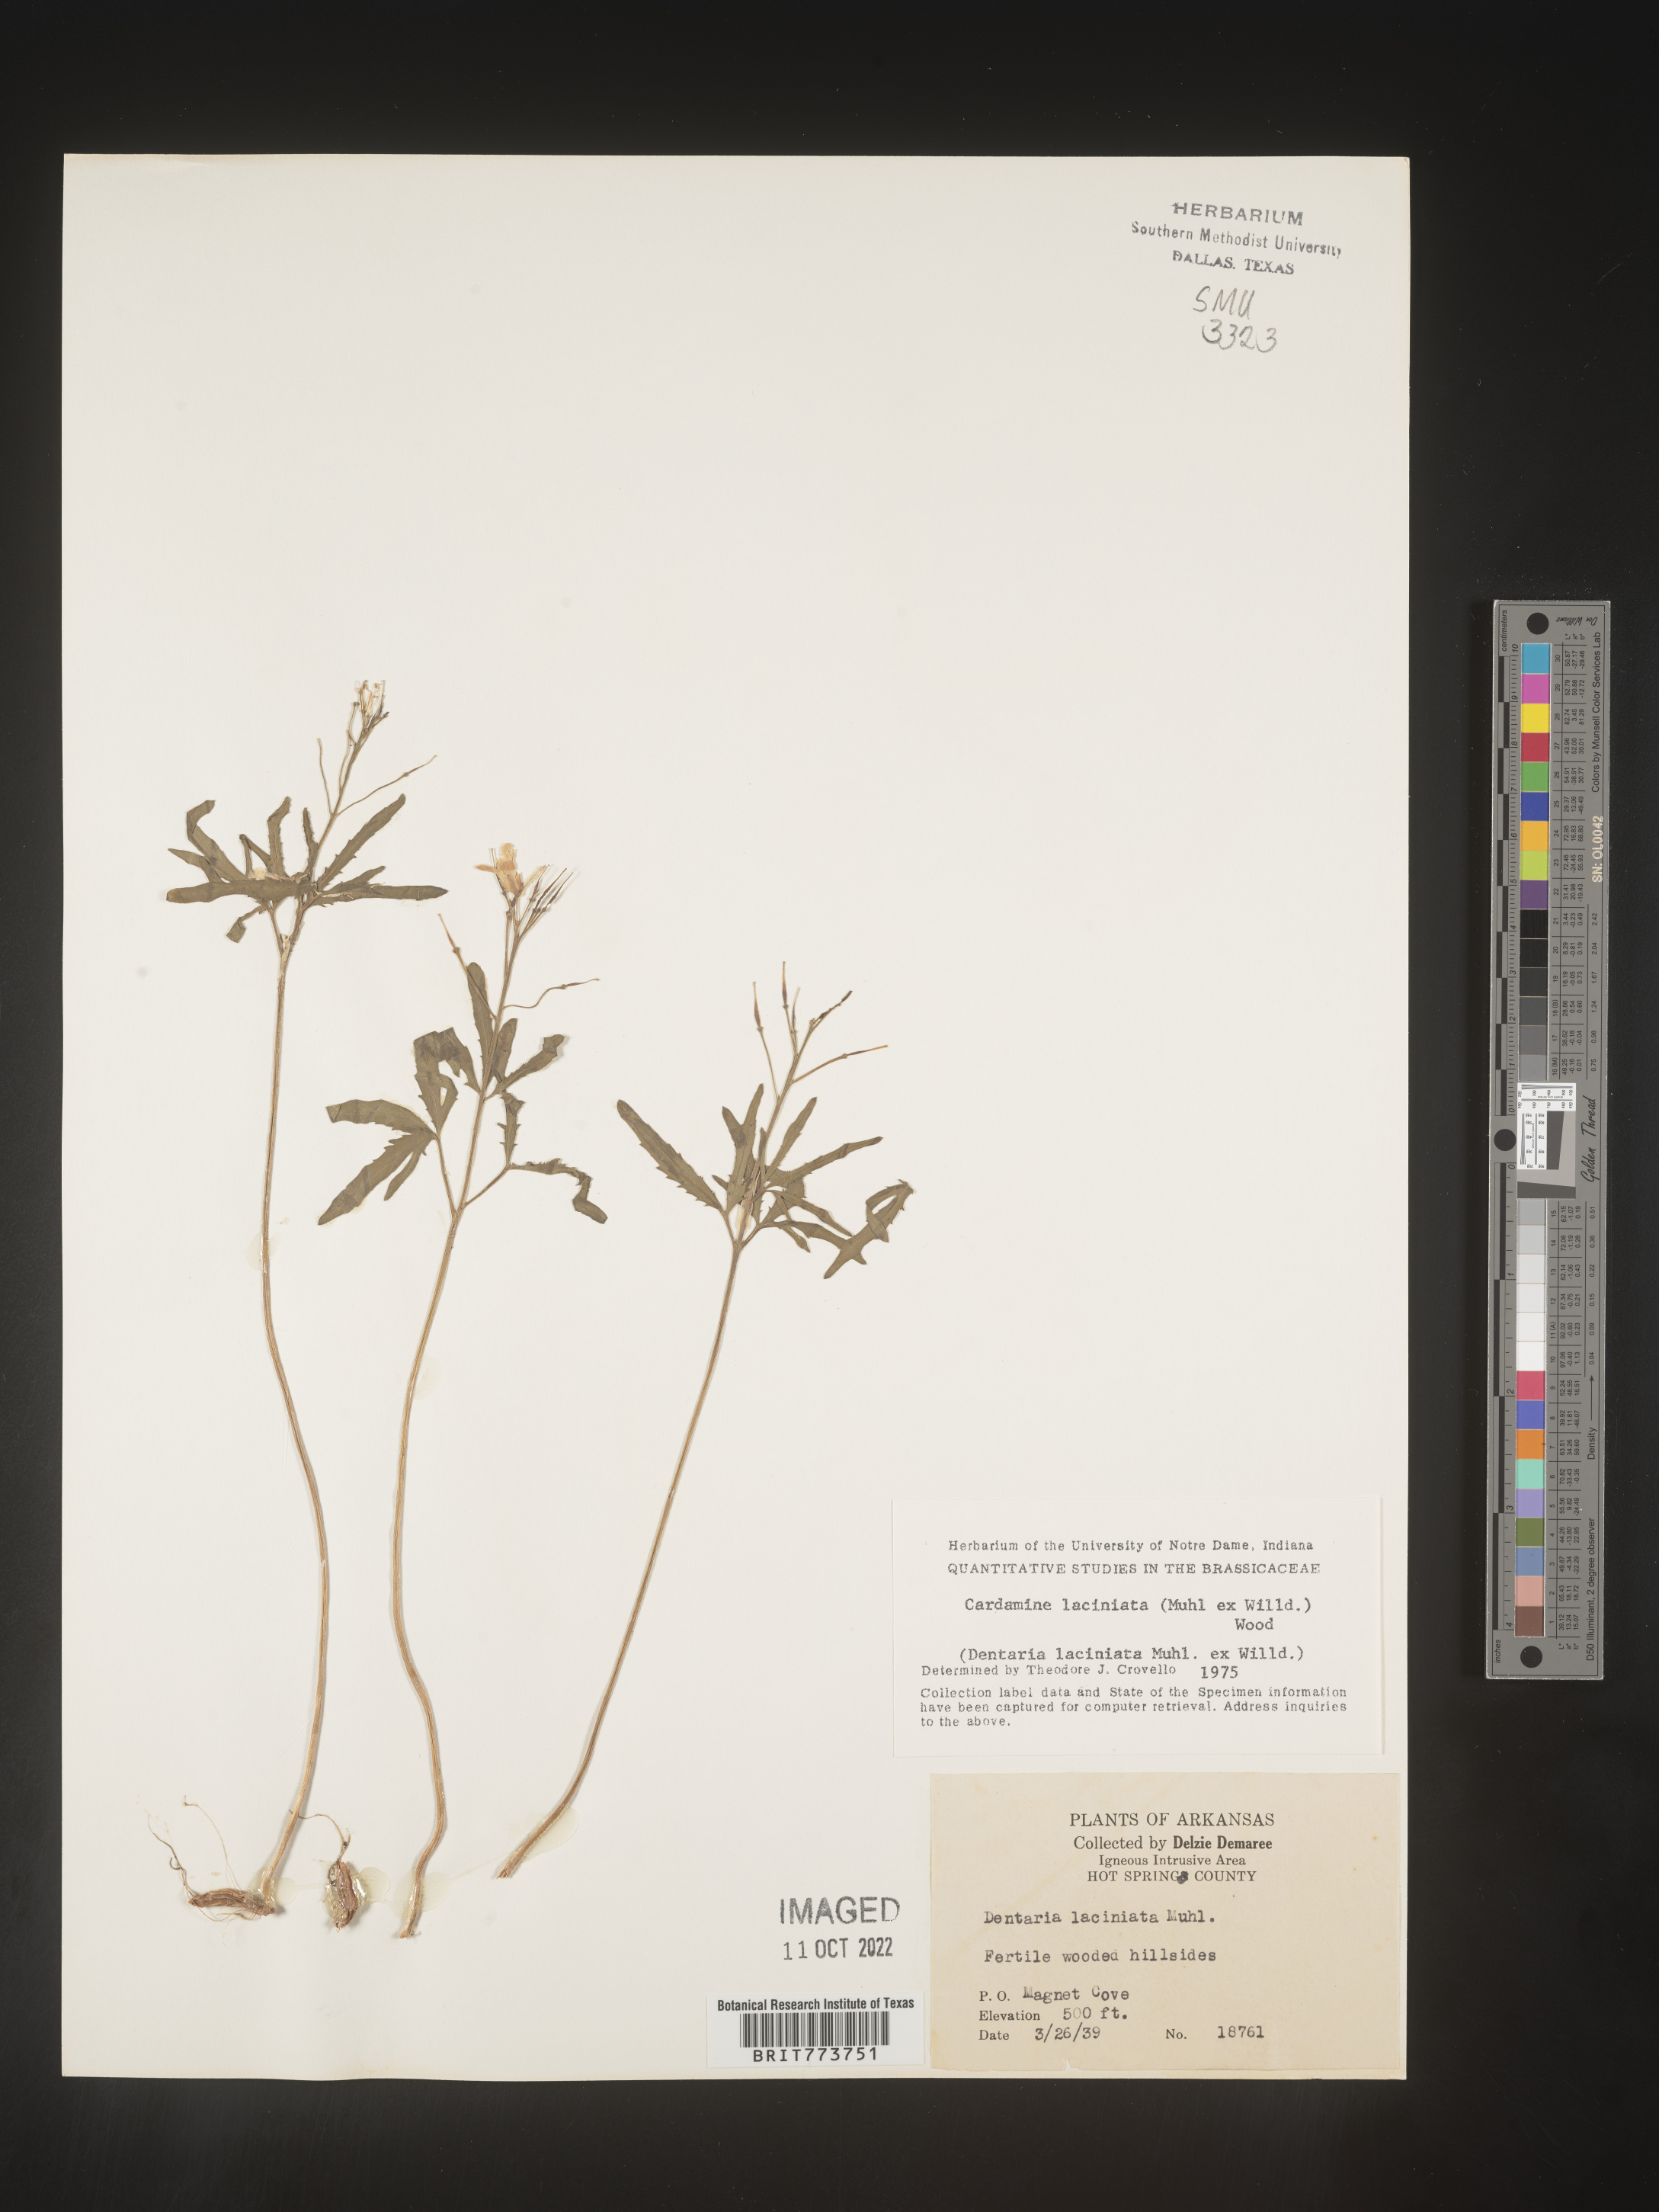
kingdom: Plantae
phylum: Tracheophyta
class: Magnoliopsida
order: Brassicales
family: Brassicaceae
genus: Rorippa
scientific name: Rorippa laciniata
